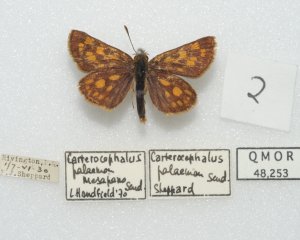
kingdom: Animalia
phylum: Arthropoda
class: Insecta
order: Lepidoptera
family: Hesperiidae
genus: Carterocephalus
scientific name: Carterocephalus palaemon
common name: Chequered Skipper
